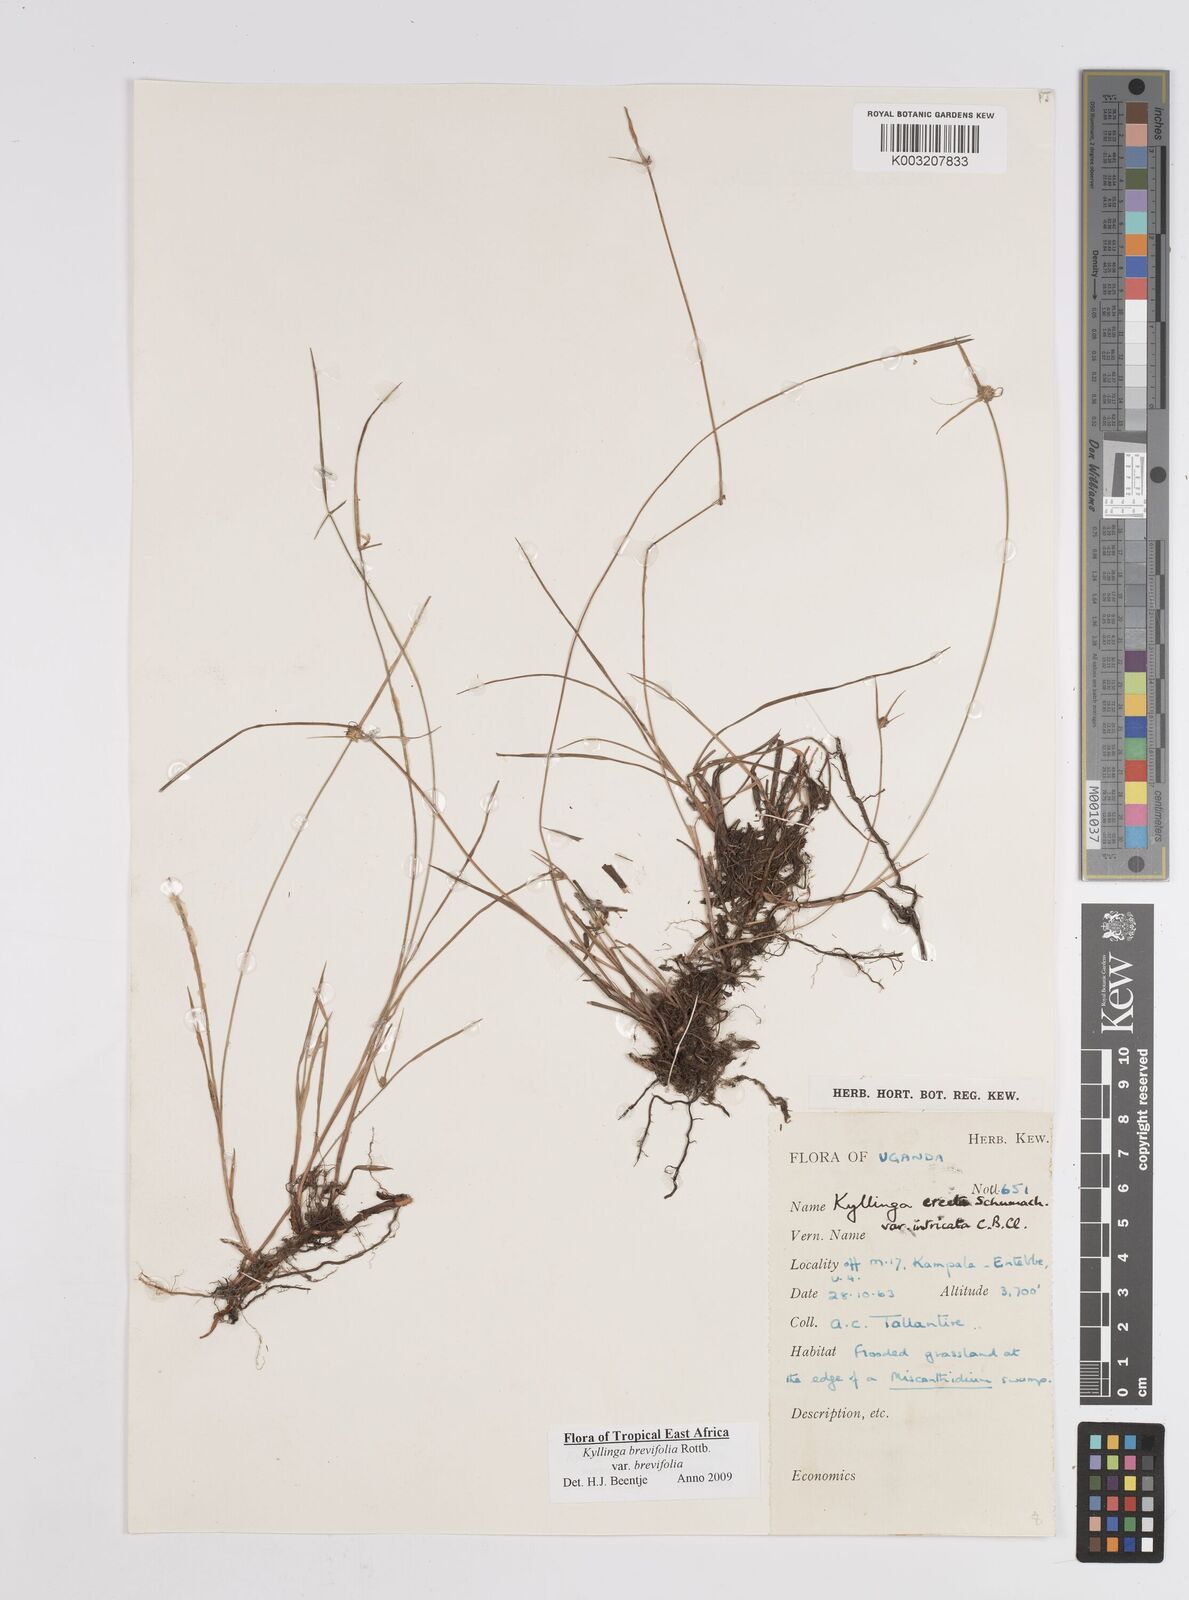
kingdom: Plantae
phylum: Tracheophyta
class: Liliopsida
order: Poales
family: Cyperaceae
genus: Cyperus
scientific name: Cyperus erectus
